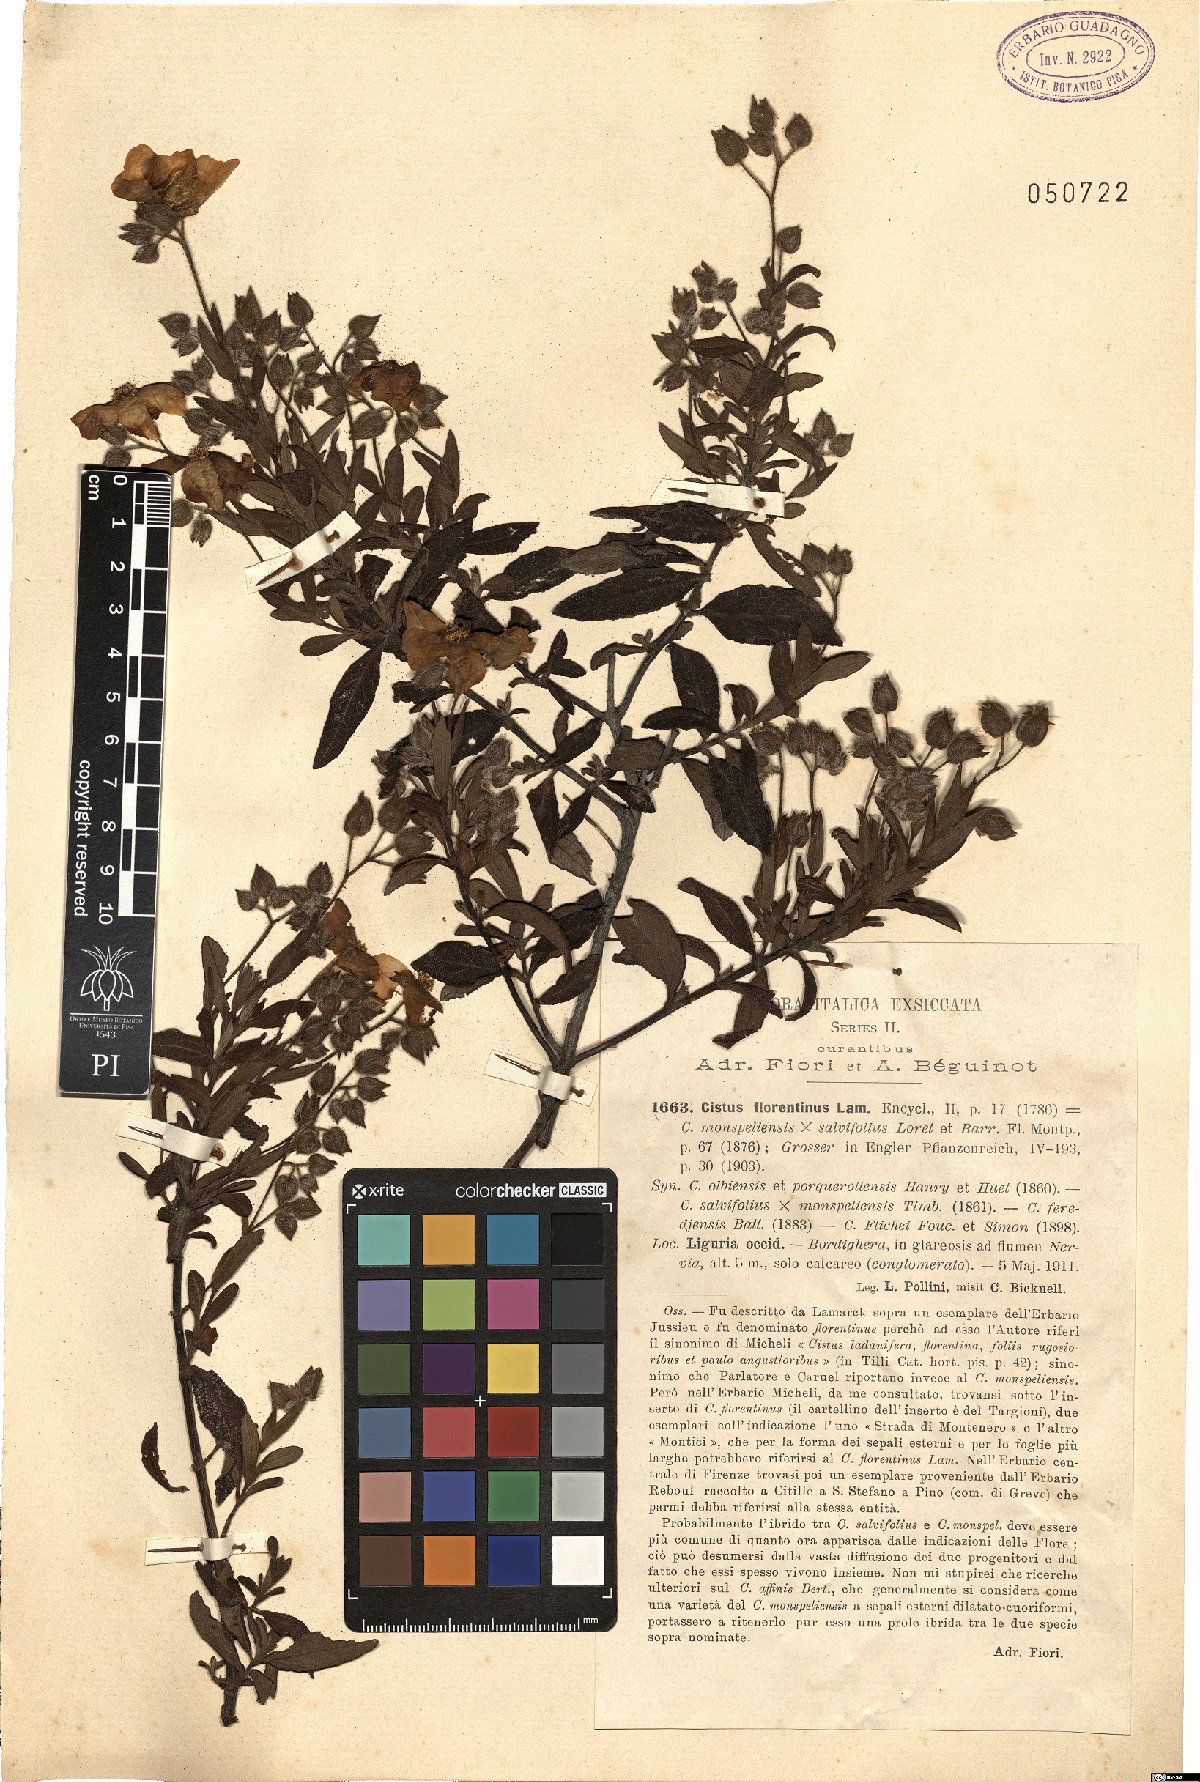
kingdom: Plantae
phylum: Tracheophyta
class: Magnoliopsida
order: Malvales
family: Cistaceae
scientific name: Cistaceae
